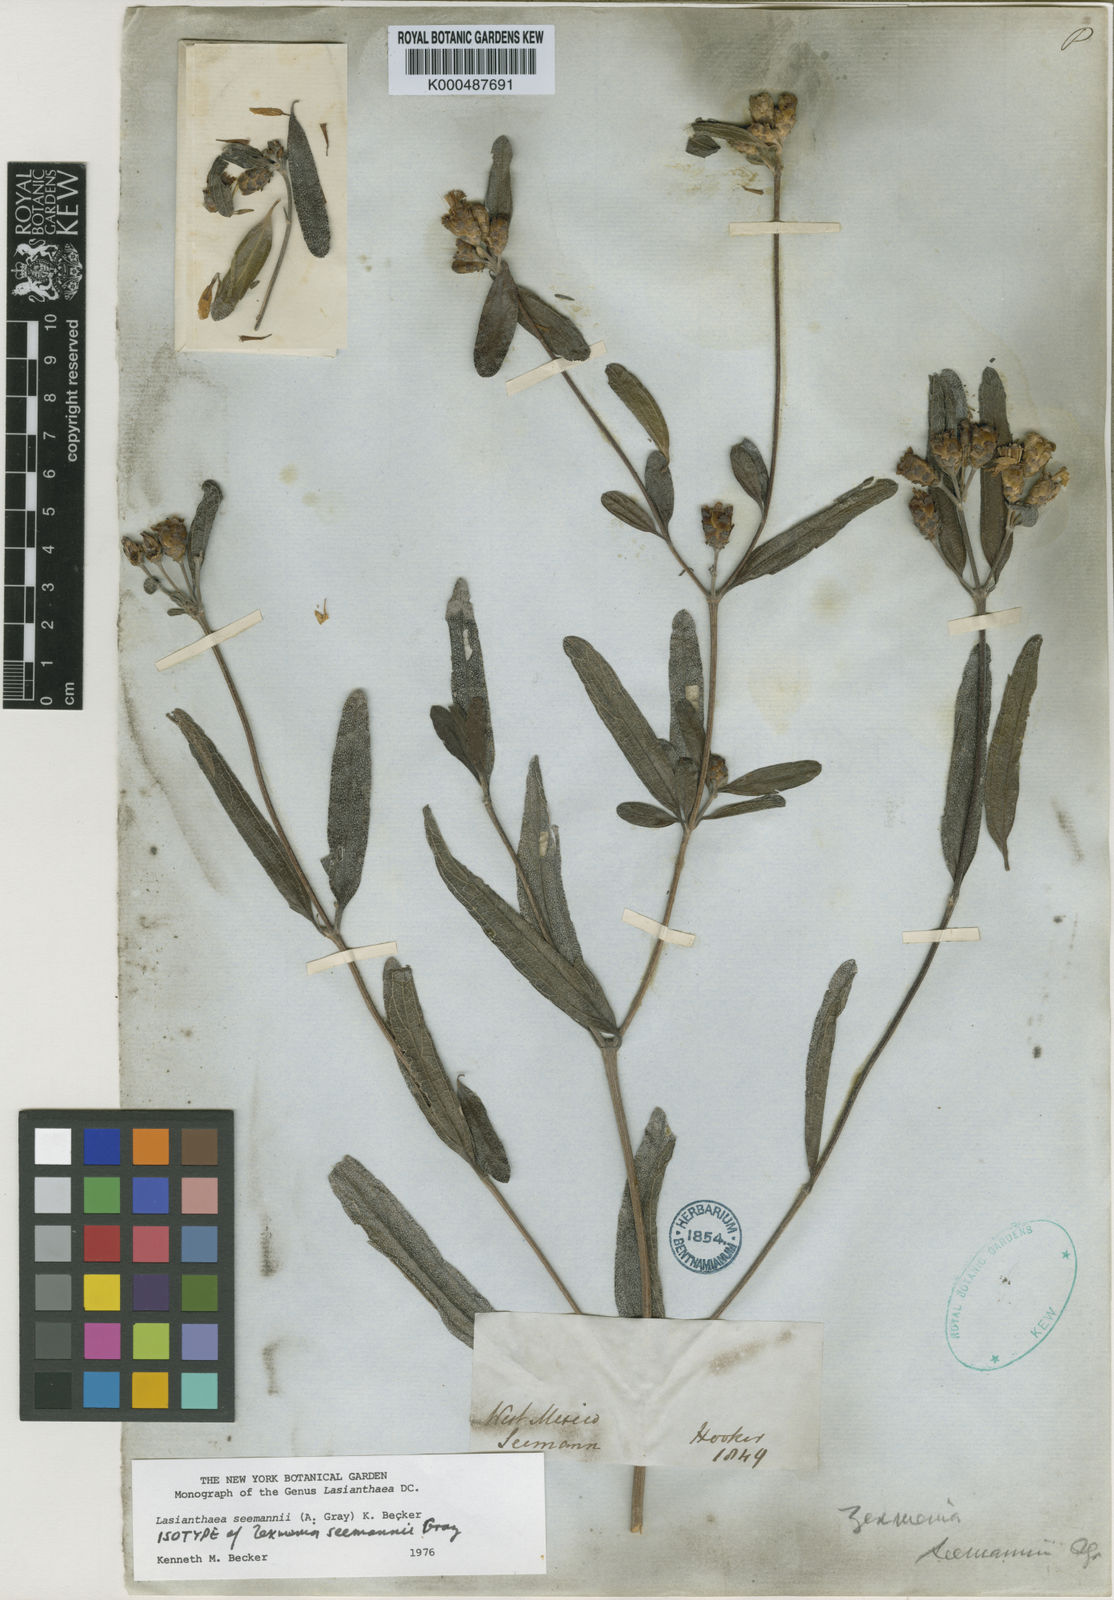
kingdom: Plantae
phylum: Tracheophyta
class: Magnoliopsida
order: Asterales
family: Asteraceae
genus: Lasianthaea
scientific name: Lasianthaea seemannii
